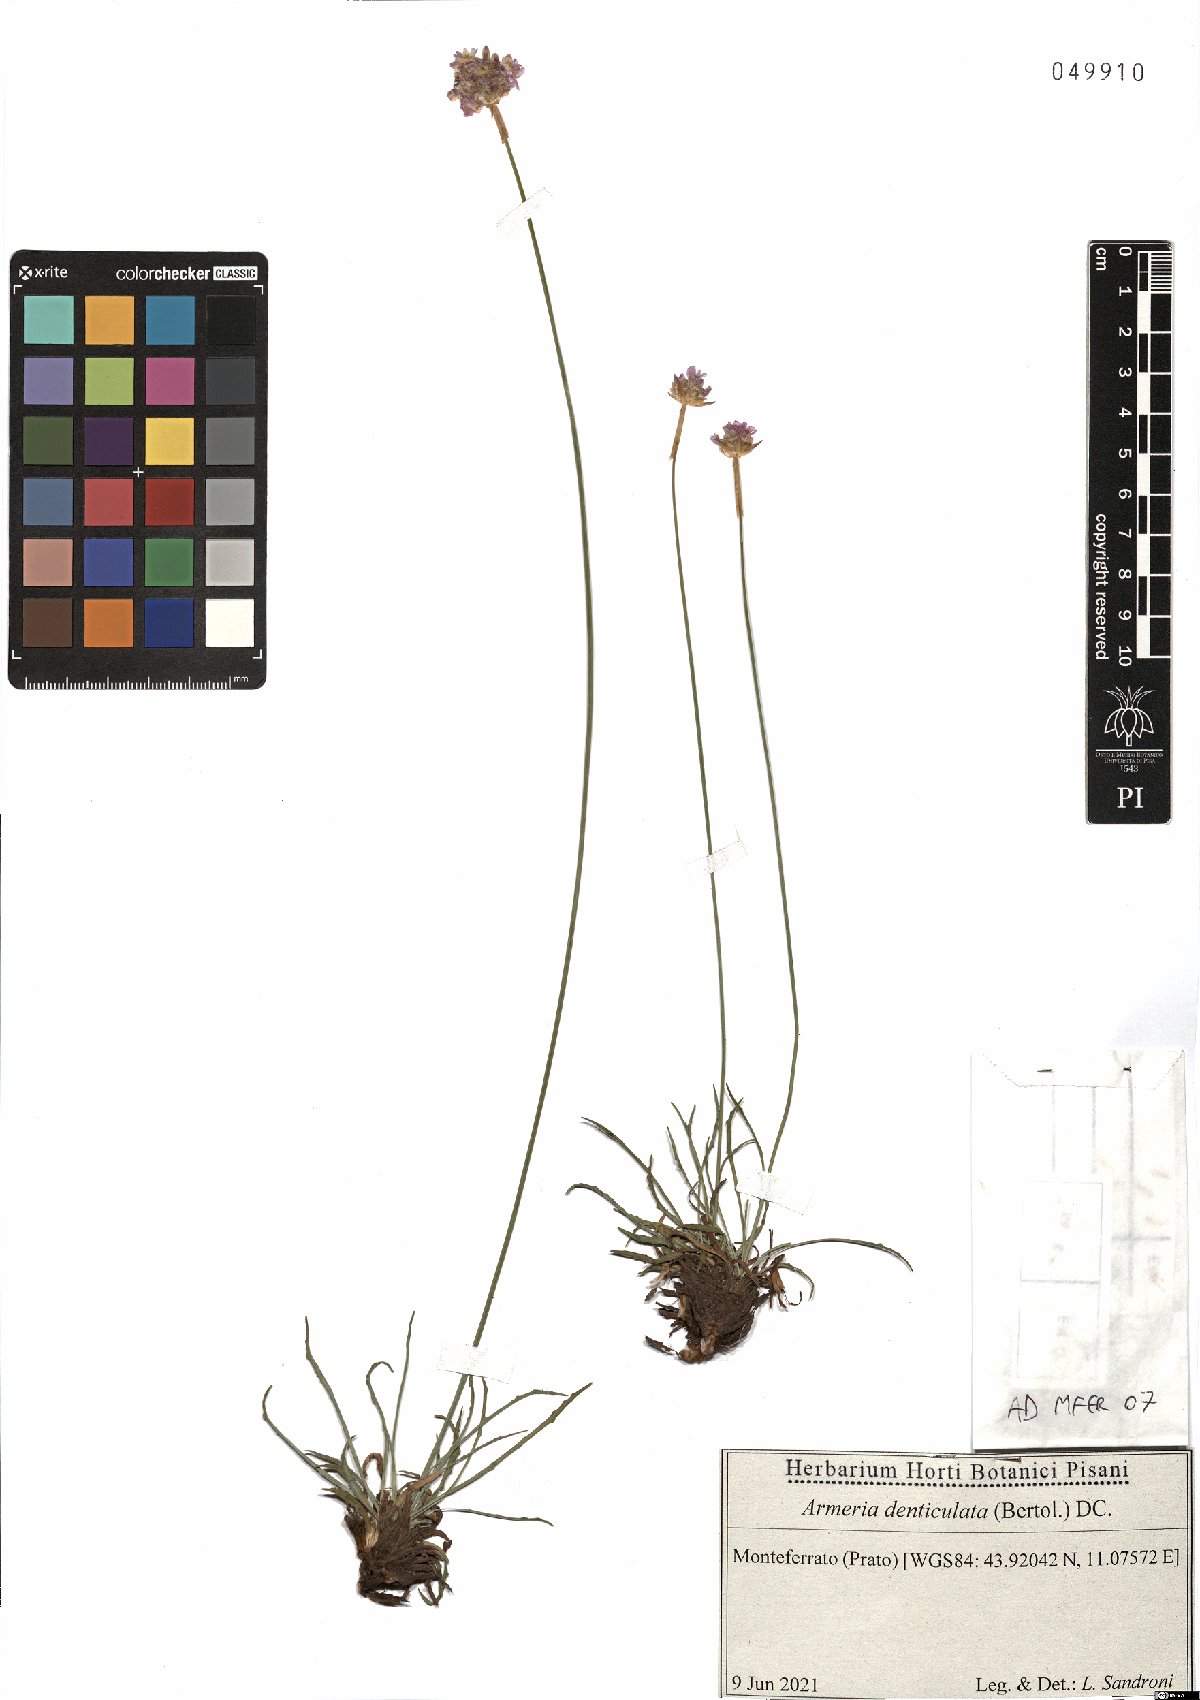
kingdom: Plantae
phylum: Tracheophyta
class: Magnoliopsida
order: Caryophyllales
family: Plumbaginaceae
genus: Armeria
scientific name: Armeria denticulata
